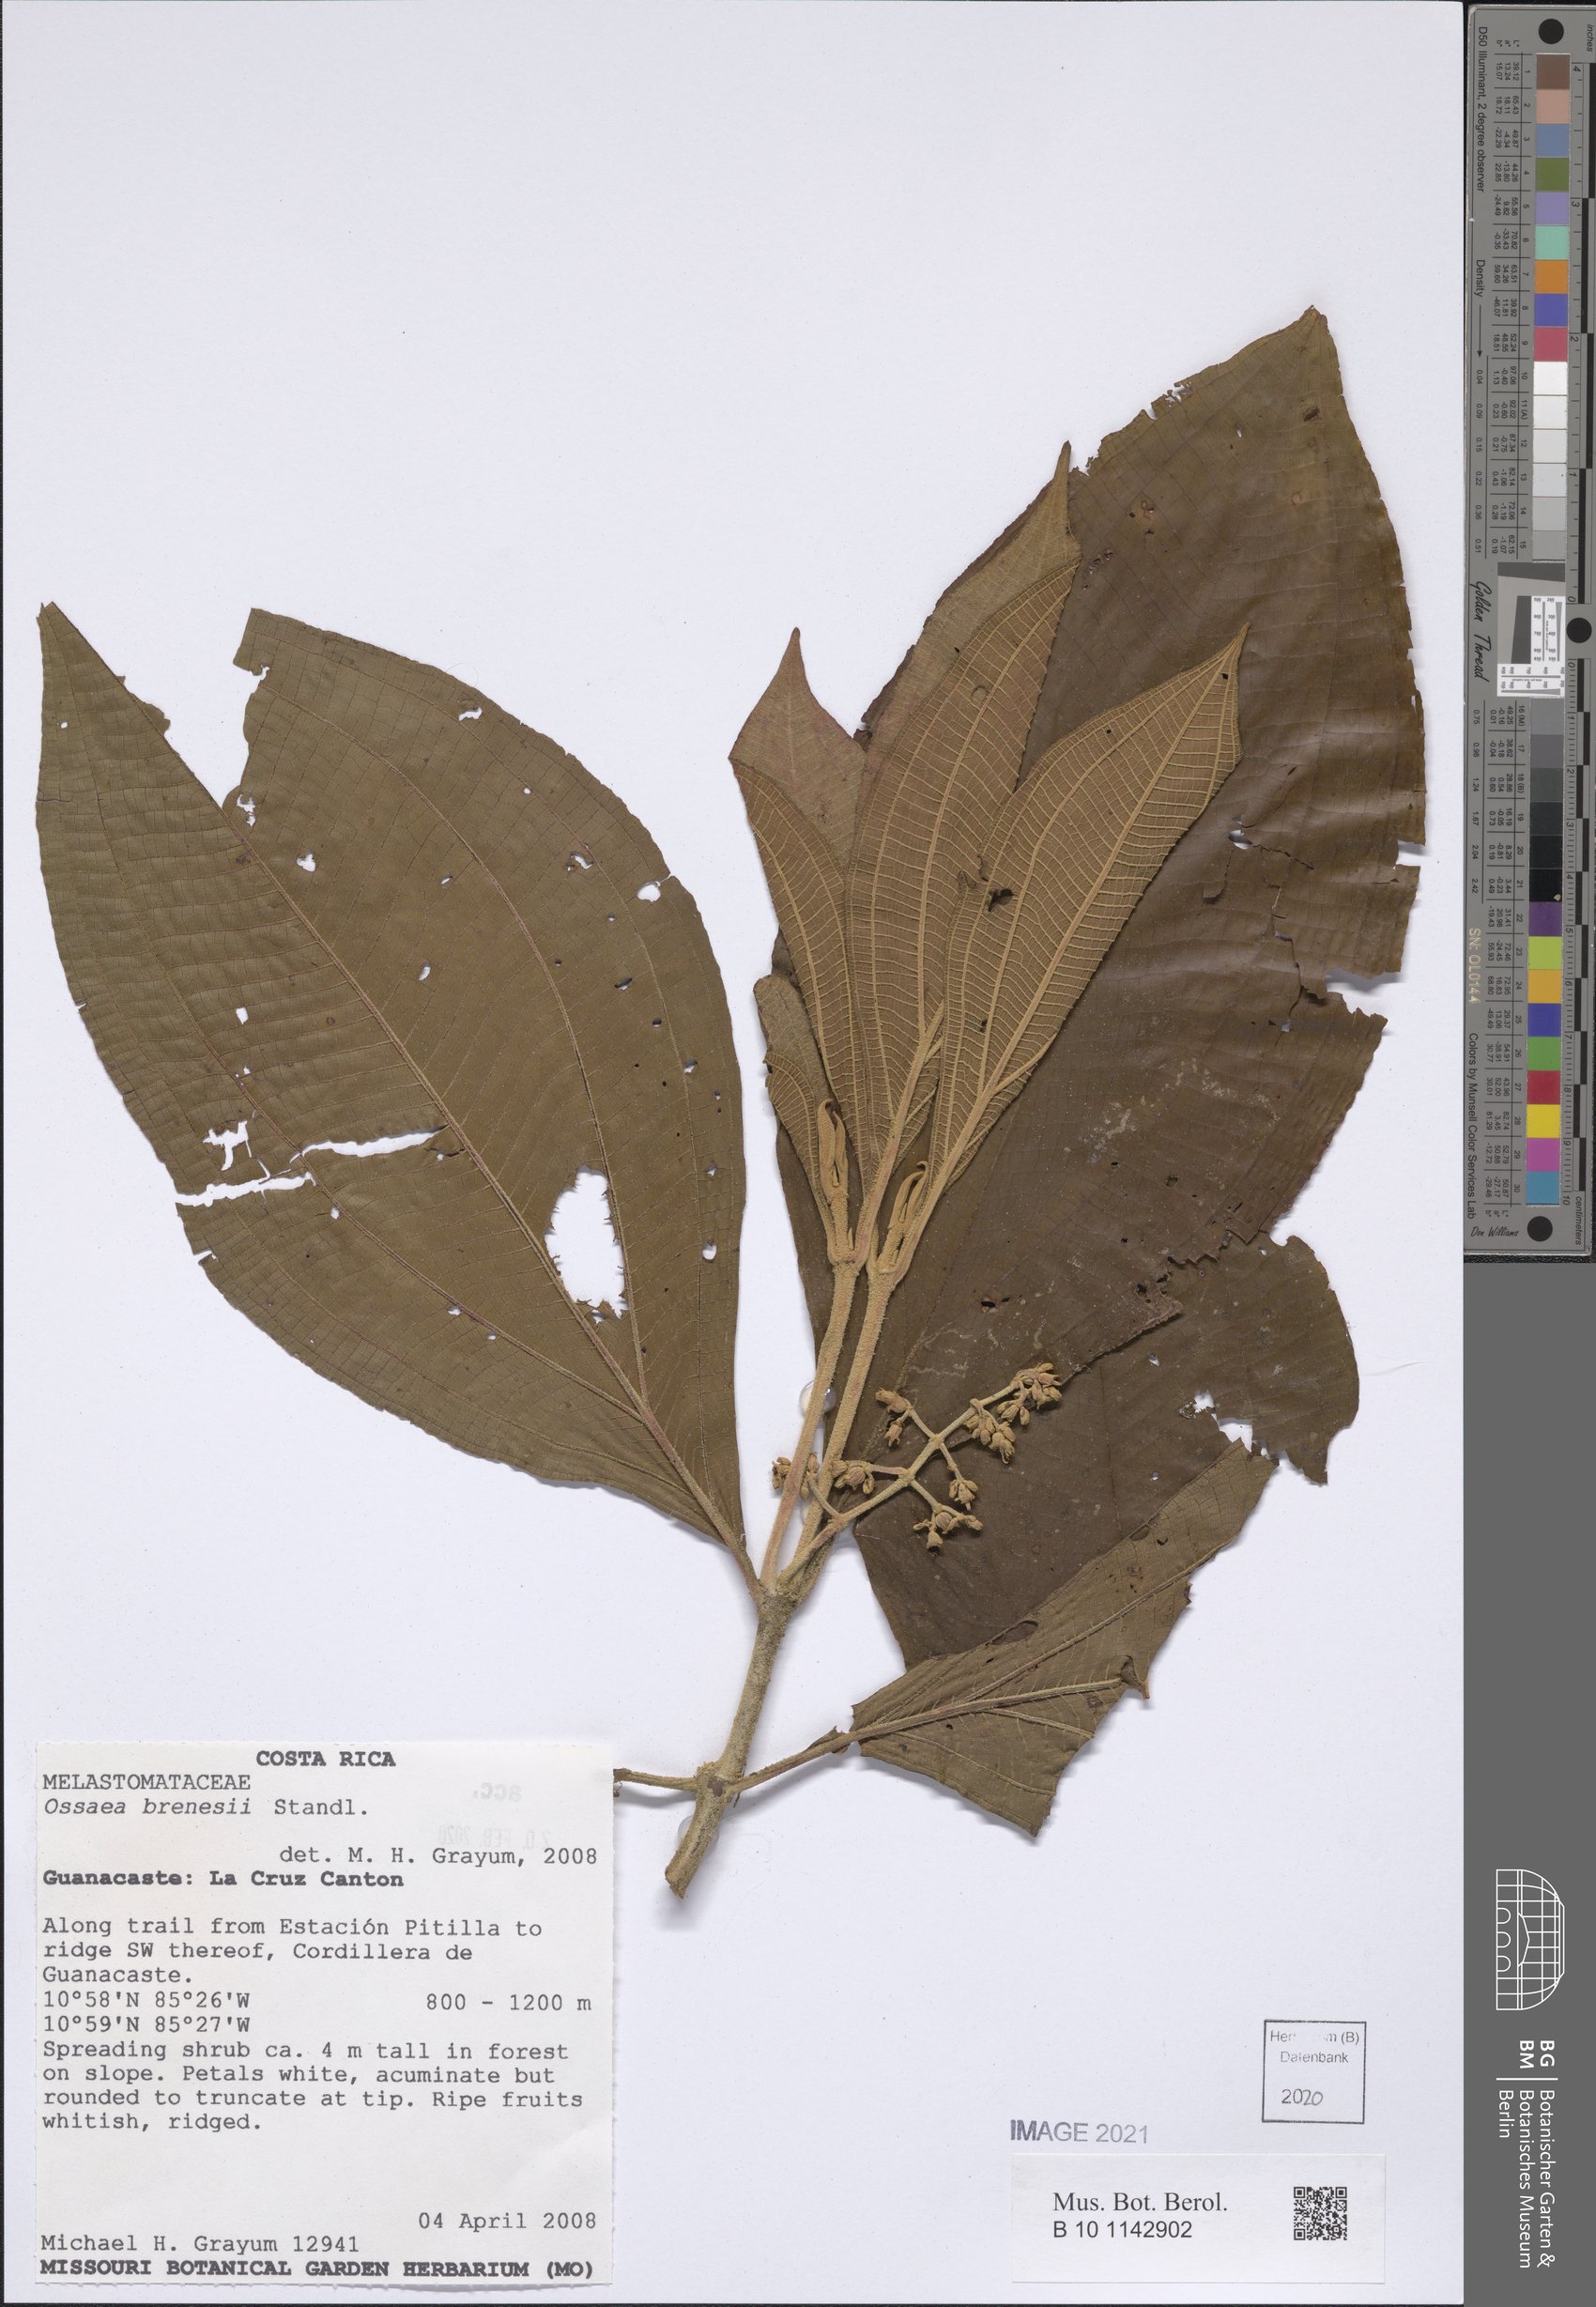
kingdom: Plantae
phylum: Tracheophyta
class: Magnoliopsida
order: Myrtales
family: Melastomataceae
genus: Miconia
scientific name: Miconia albertobrenesii
